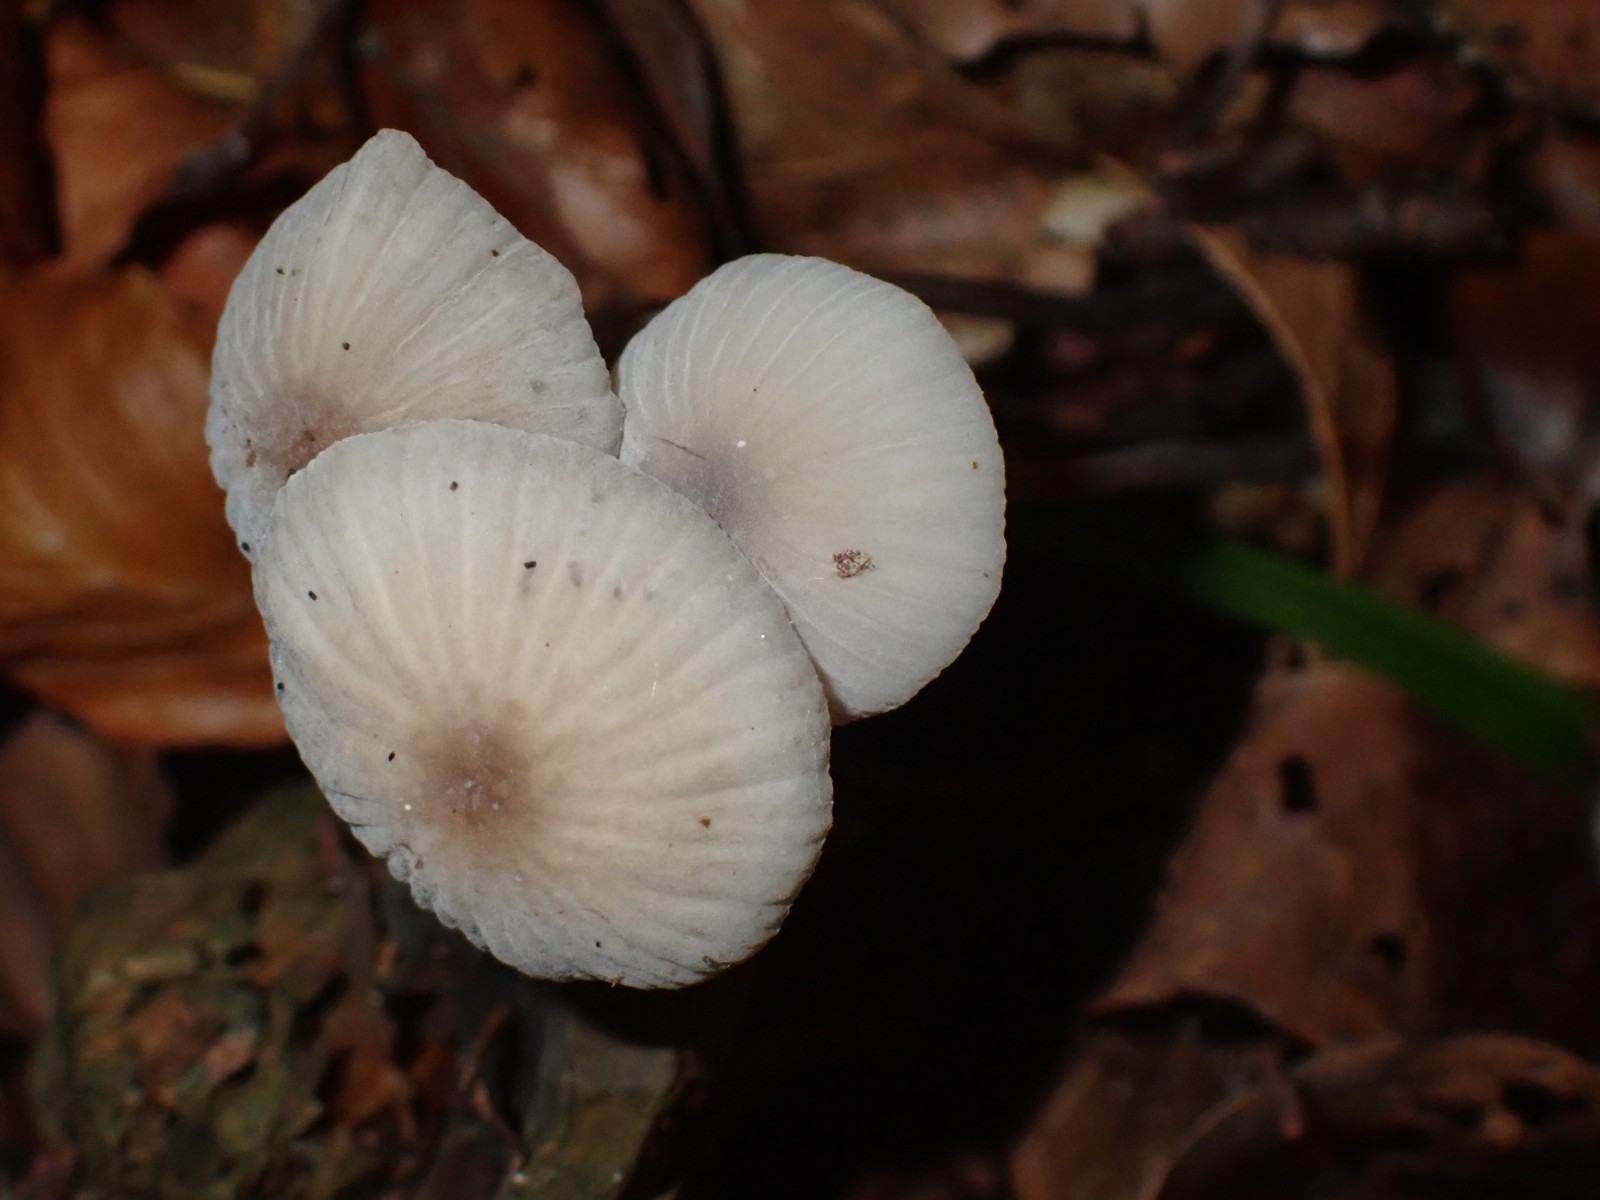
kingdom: Fungi
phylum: Basidiomycota
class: Agaricomycetes
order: Agaricales
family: Mycenaceae
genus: Mycena
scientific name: Mycena galopus
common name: hvidmælket huesvamp
